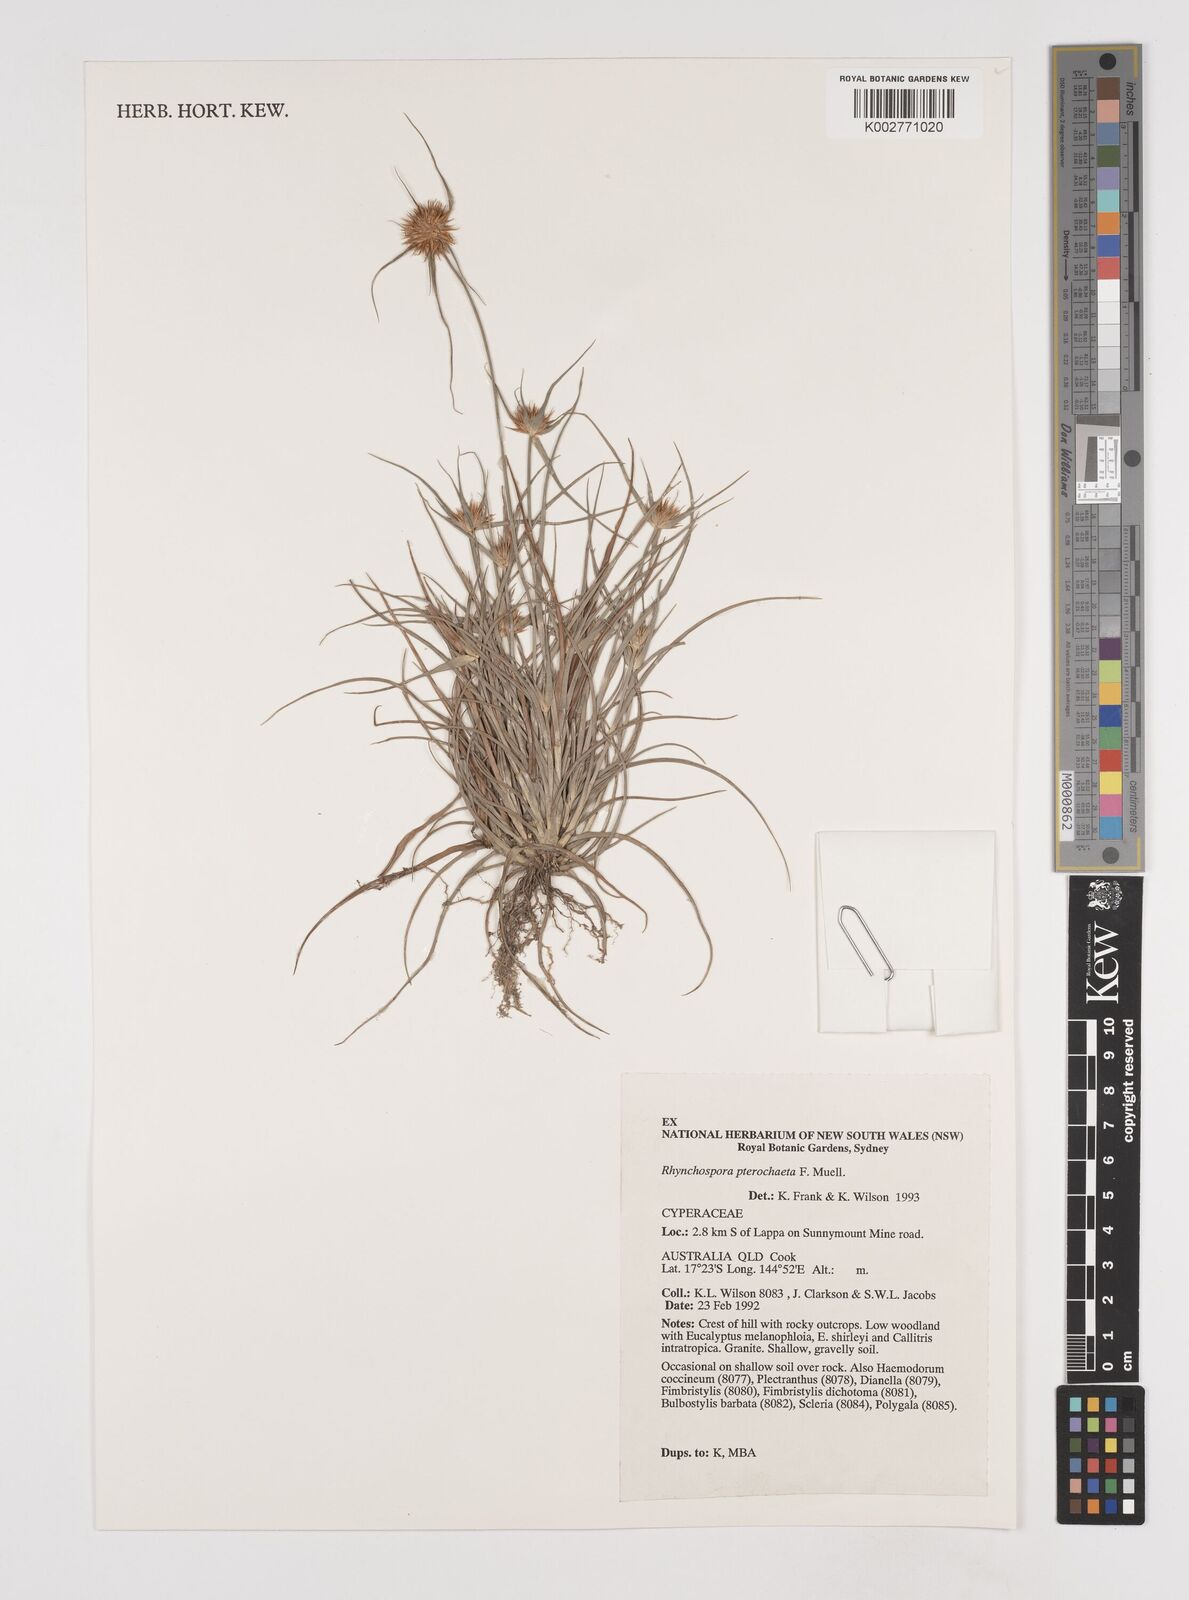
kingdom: Plantae
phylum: Tracheophyta
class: Liliopsida
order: Poales
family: Cyperaceae
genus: Rhynchospora
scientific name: Rhynchospora pterochaeta
